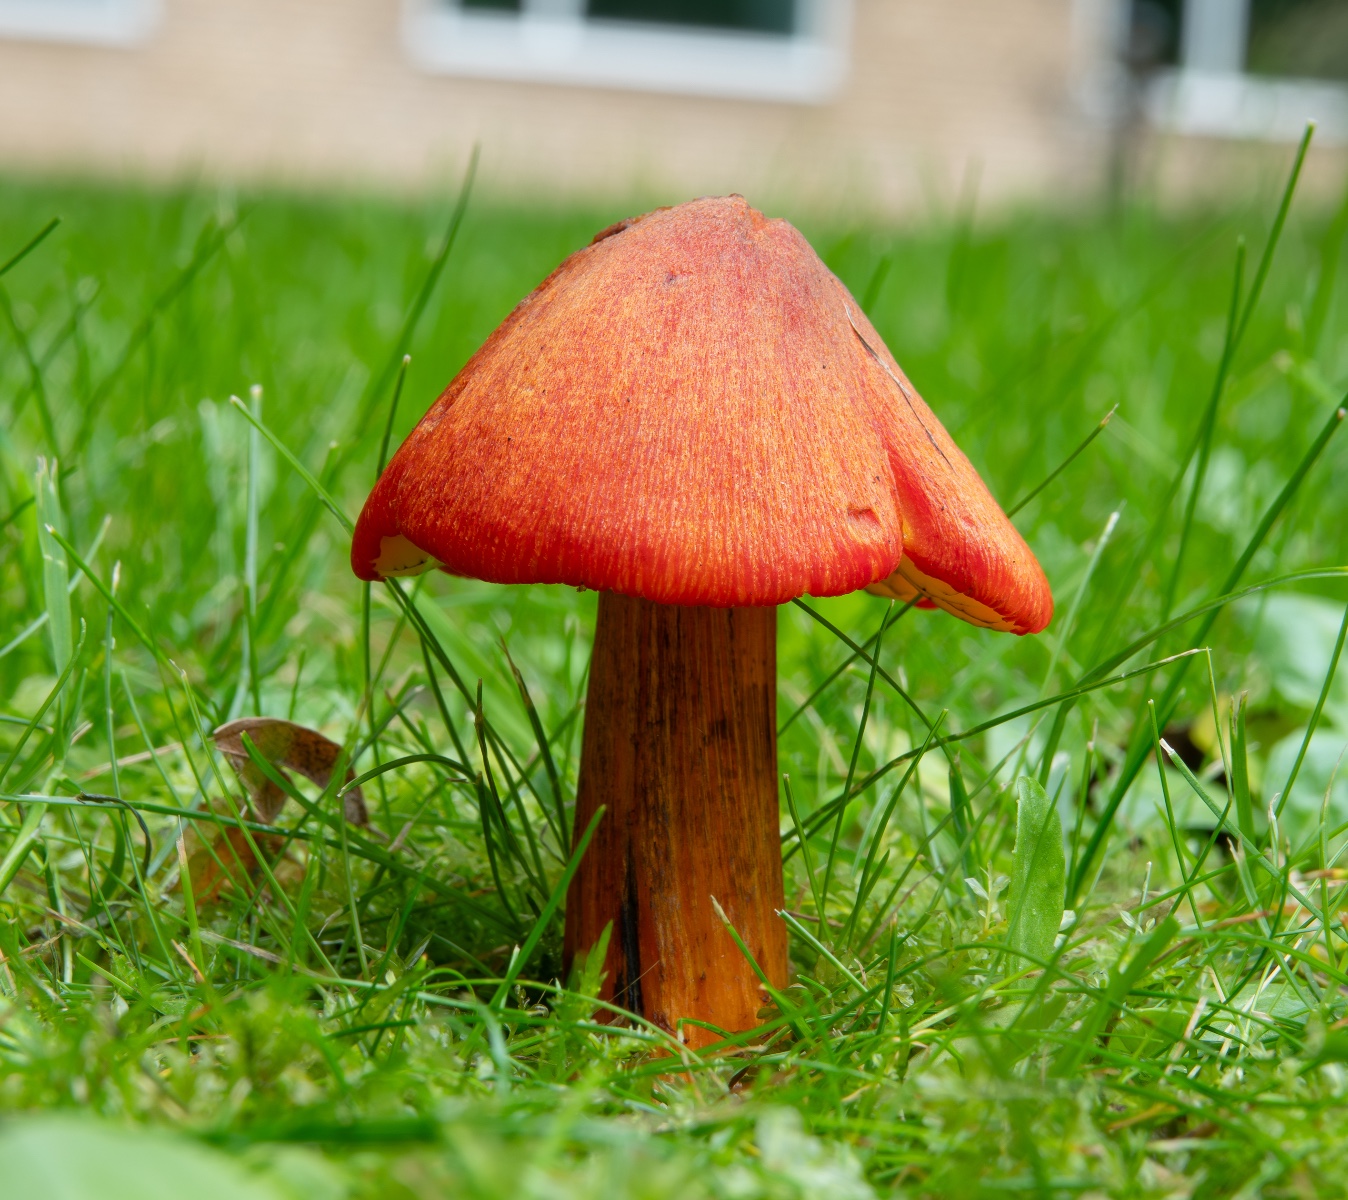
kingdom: Fungi
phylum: Basidiomycota
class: Agaricomycetes
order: Agaricales
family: Hygrophoraceae
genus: Hygrocybe
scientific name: Hygrocybe conica
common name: kegle-vokshat
